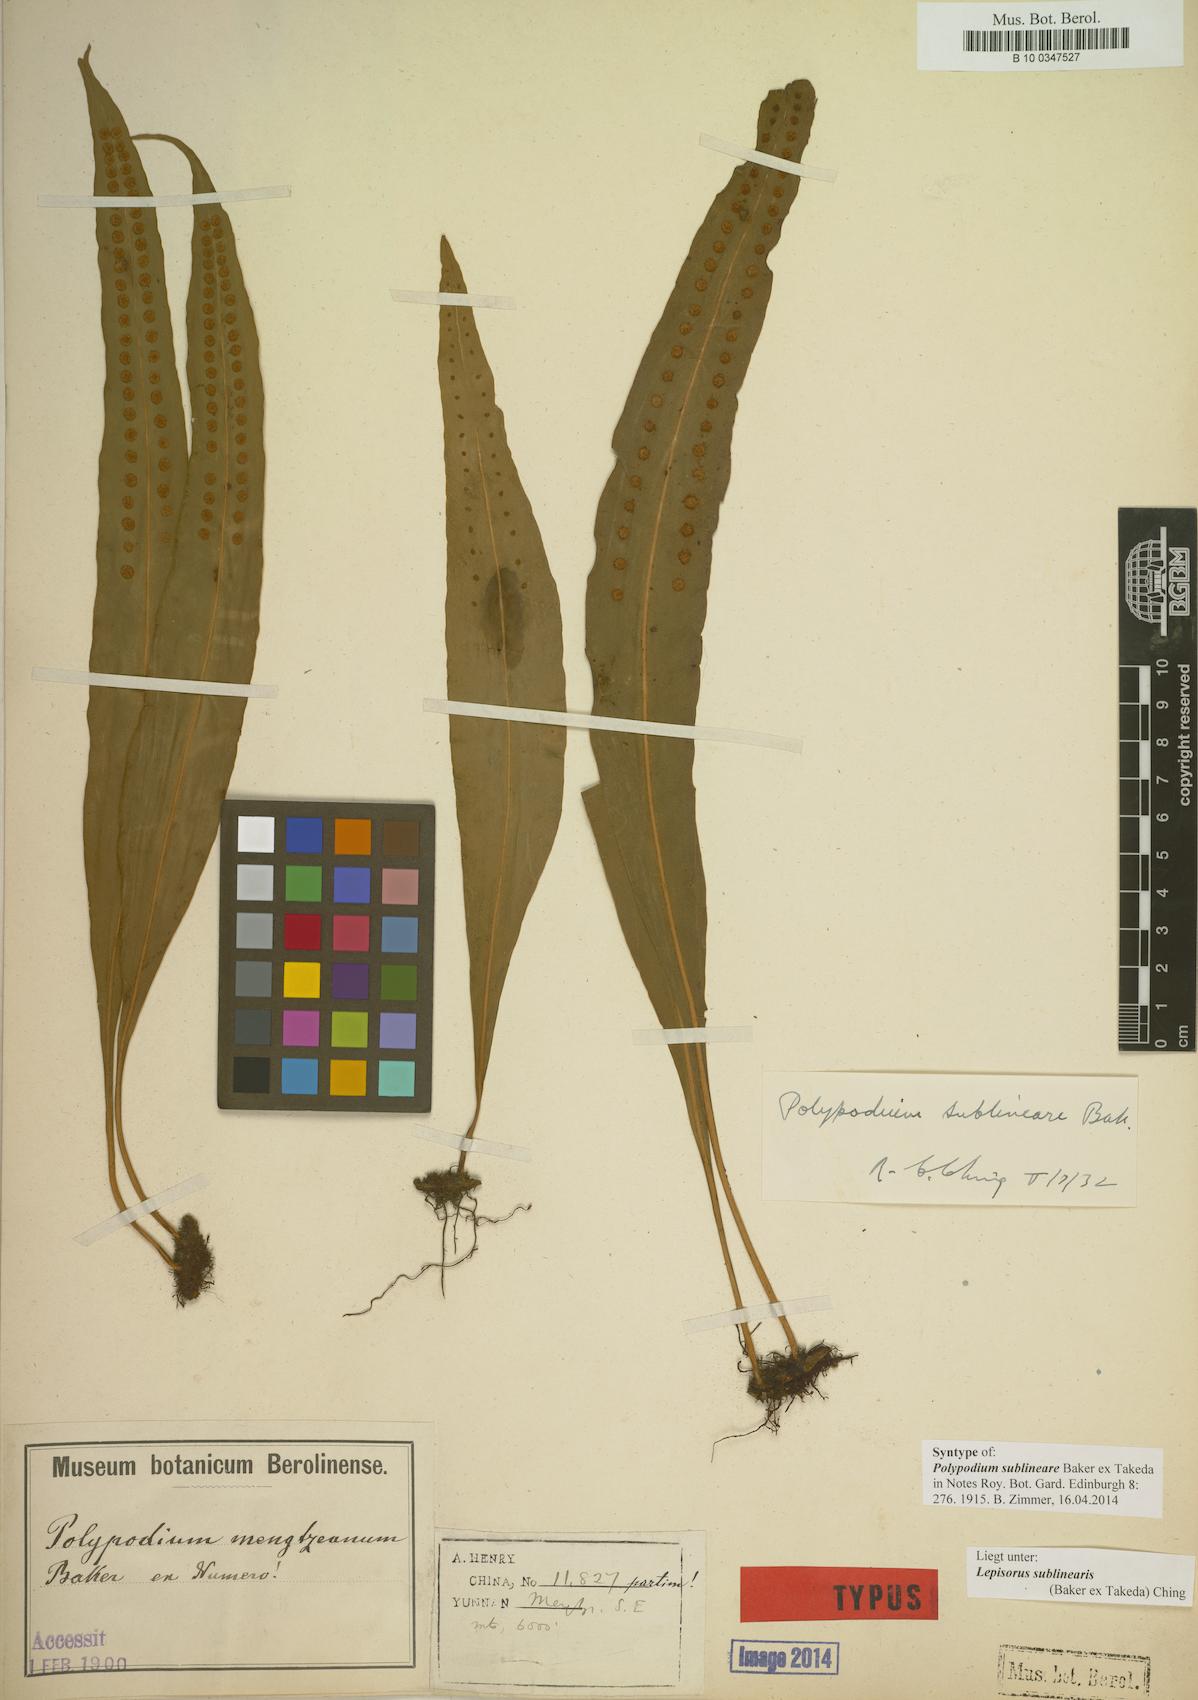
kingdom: Plantae
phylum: Tracheophyta
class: Polypodiopsida
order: Polypodiales
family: Polypodiaceae
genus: Polypodium
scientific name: Polypodium sublineare
